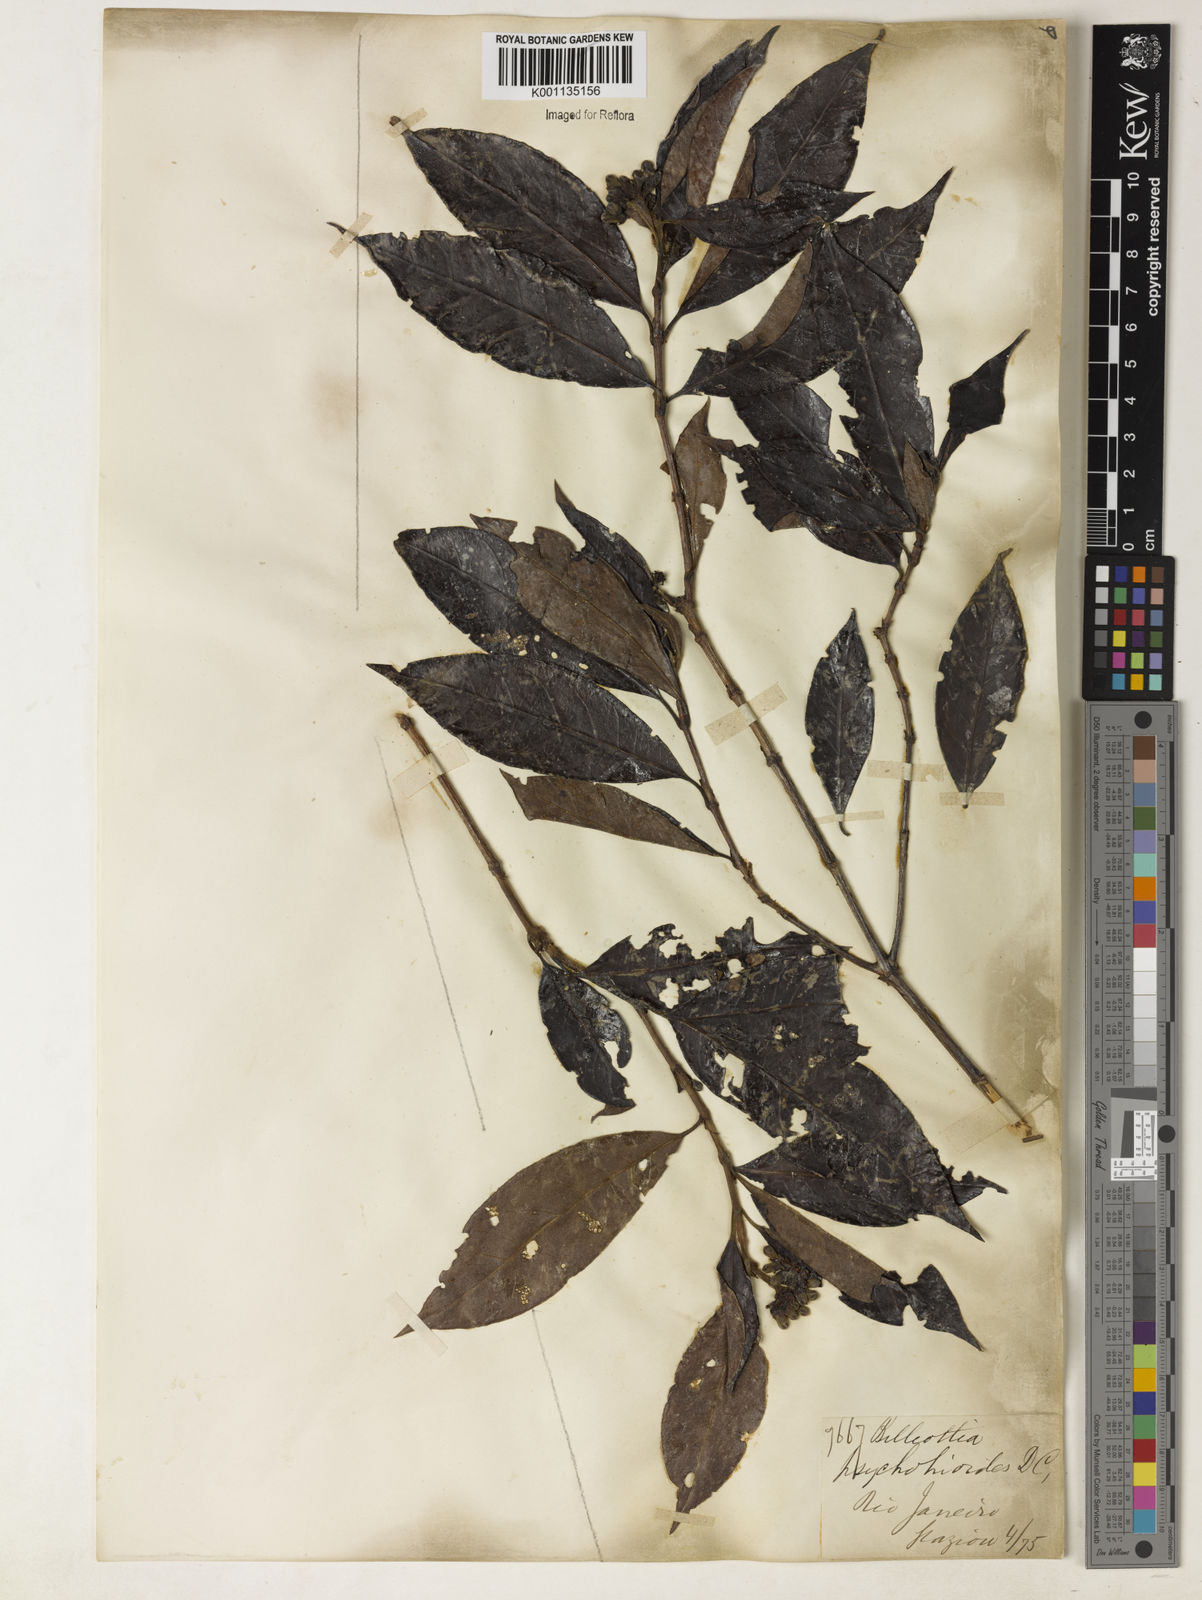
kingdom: Plantae
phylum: Tracheophyta
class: Magnoliopsida
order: Gentianales
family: Rubiaceae
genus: Melanopsidium
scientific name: Melanopsidium nigrum
